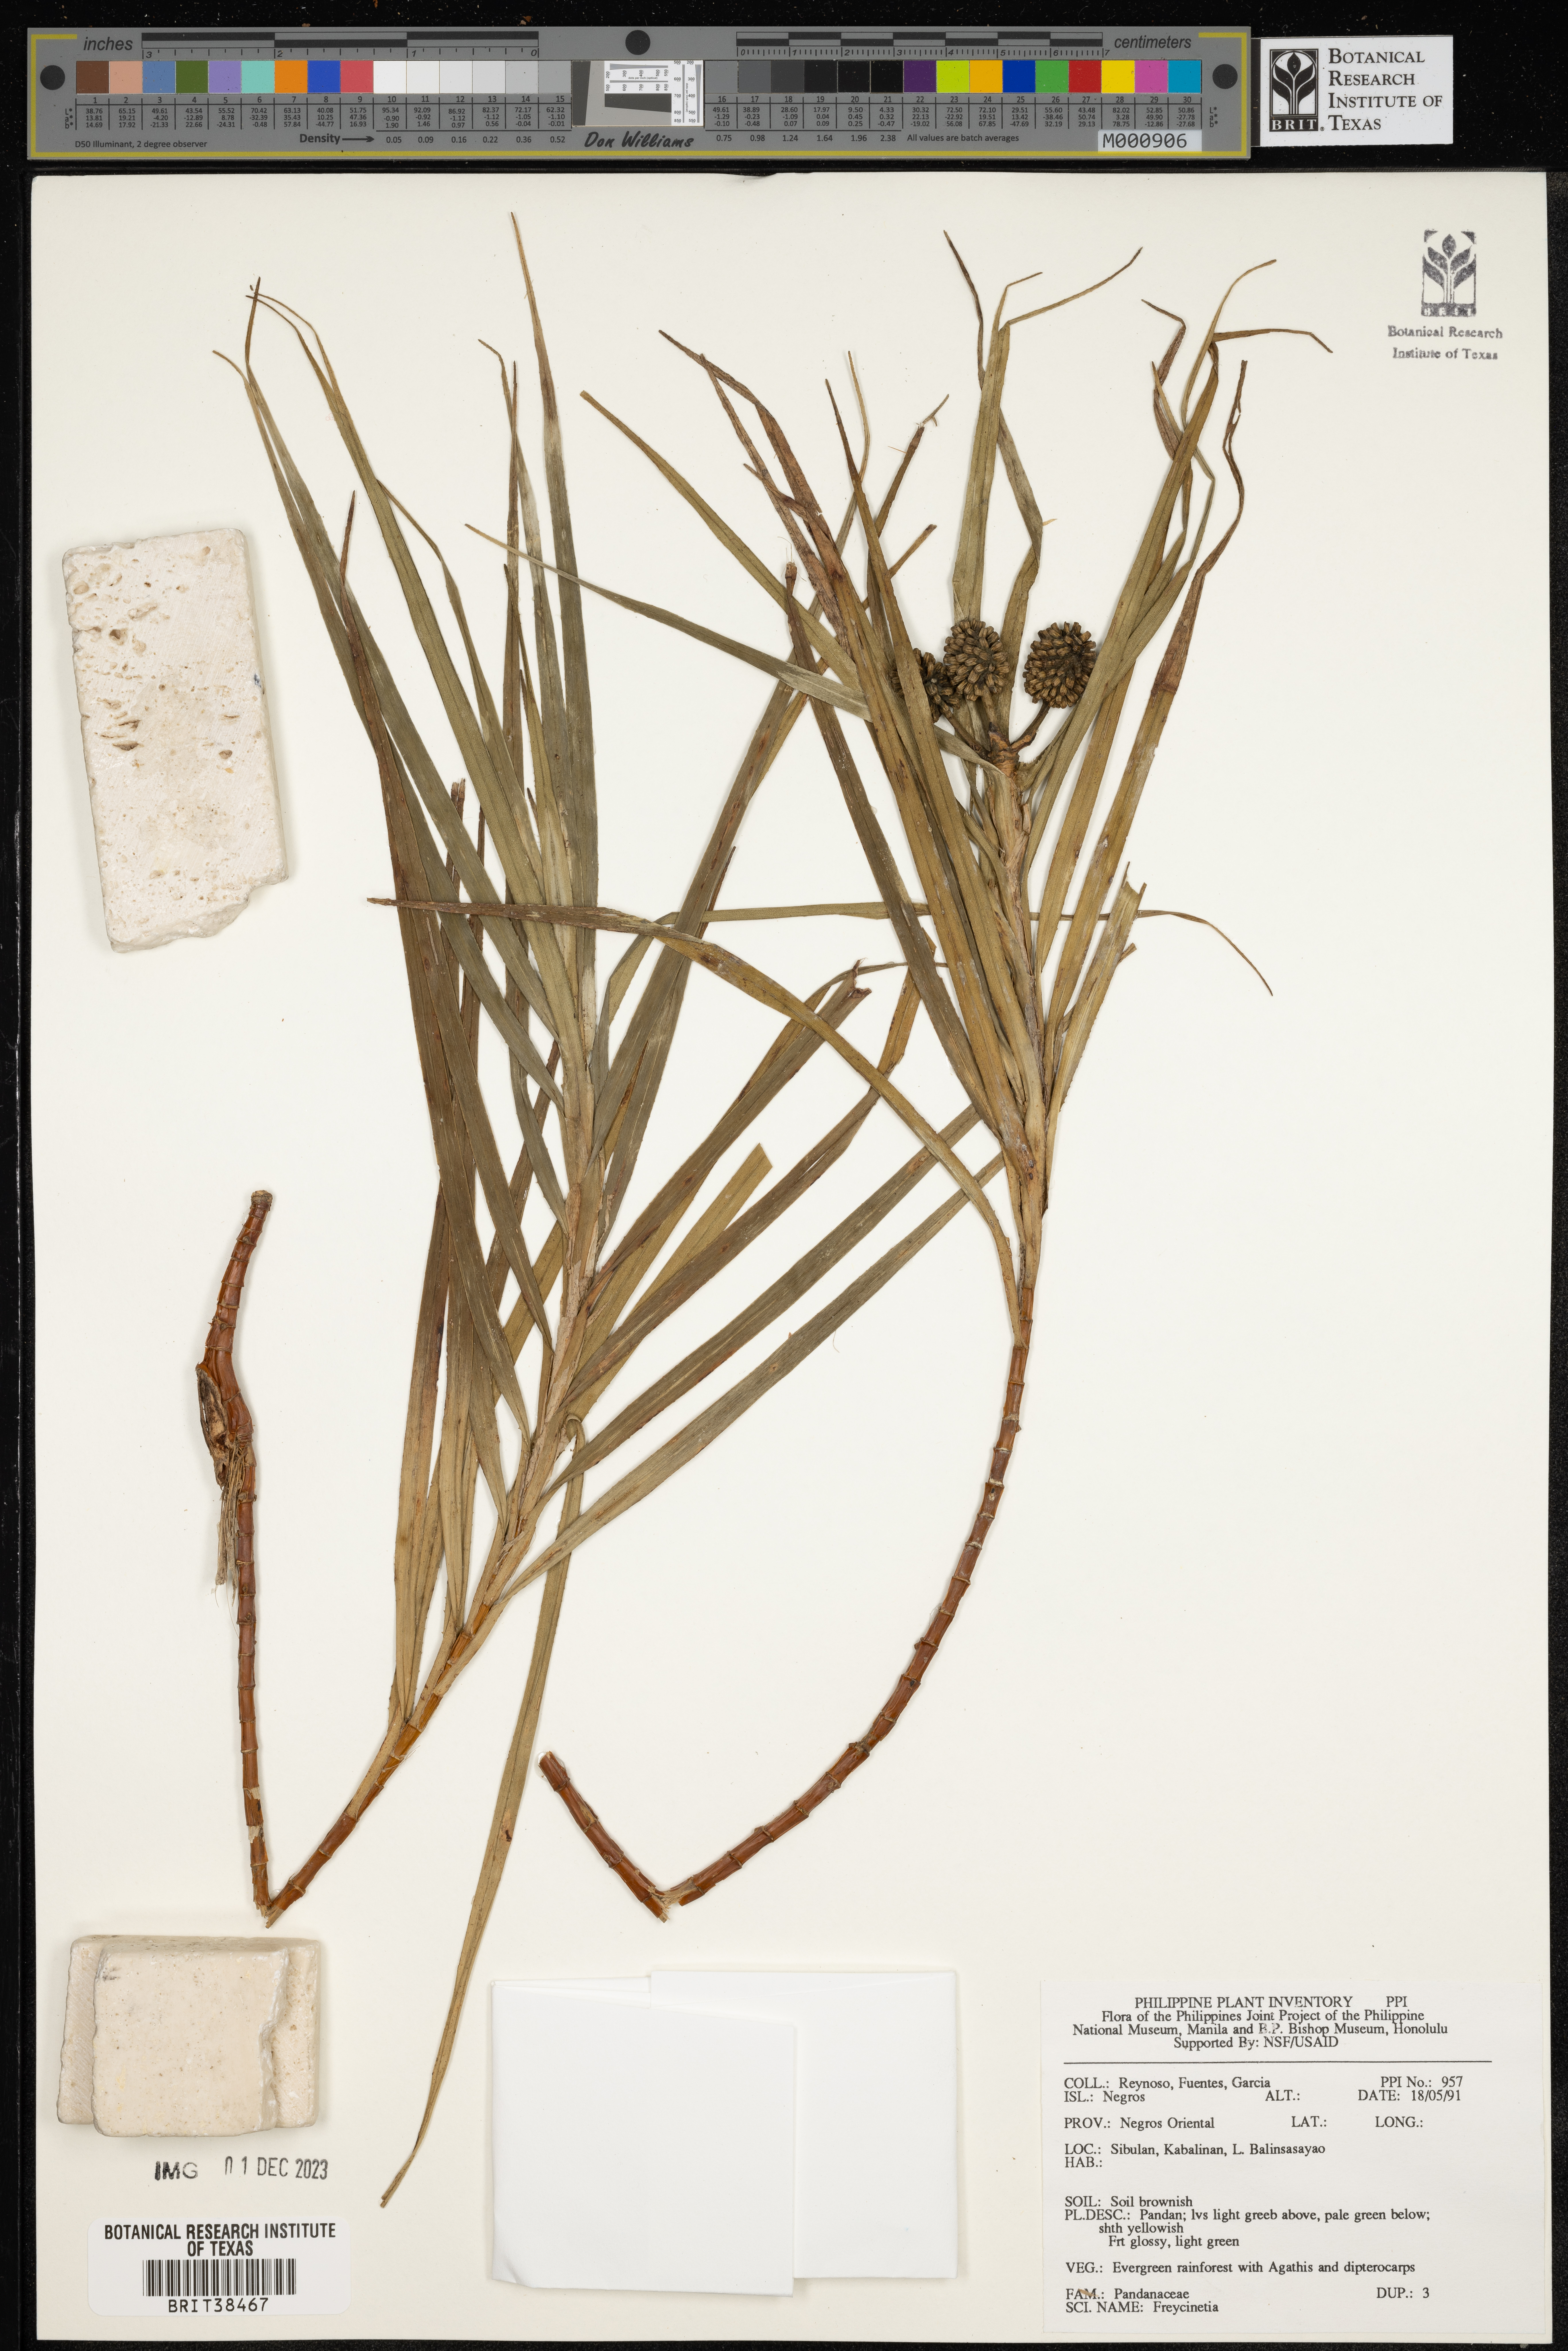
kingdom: Plantae
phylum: Tracheophyta
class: Liliopsida
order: Pandanales
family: Pandanaceae
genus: Freycinetia
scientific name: Freycinetia
